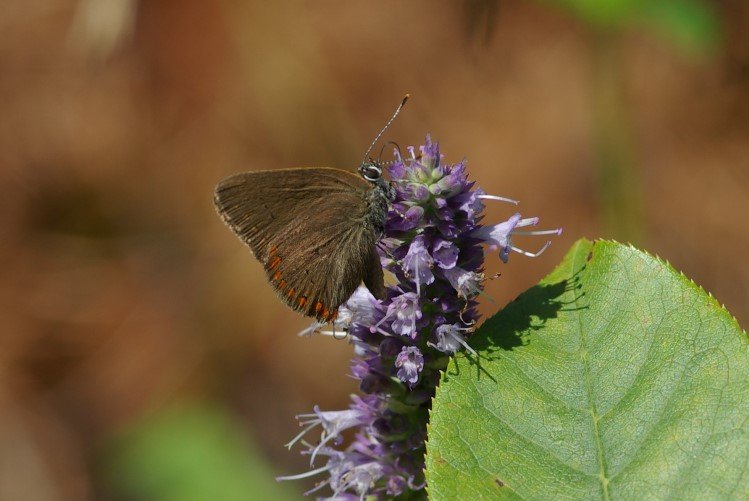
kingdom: Animalia
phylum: Arthropoda
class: Insecta
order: Lepidoptera
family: Lycaenidae
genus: Harkenclenus
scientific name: Harkenclenus titus
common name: Coral Hairstreak
